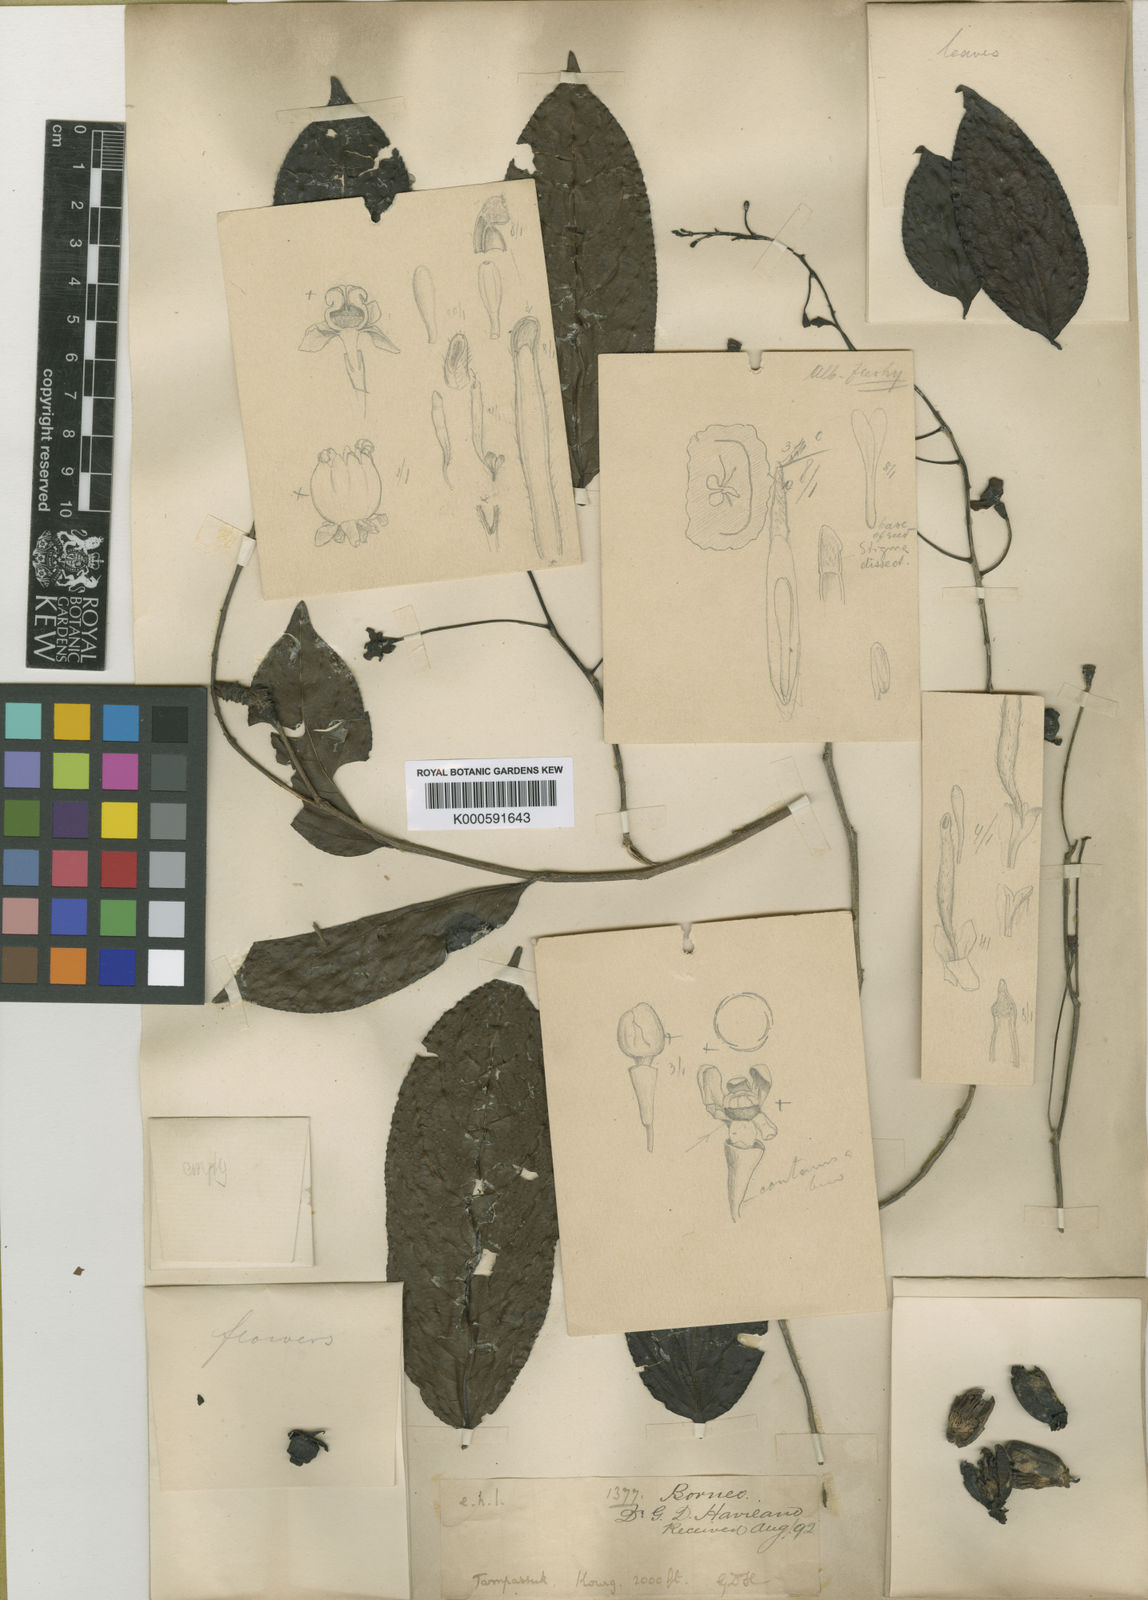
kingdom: Plantae
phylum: Tracheophyta
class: Magnoliopsida
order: Malpighiales
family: Salicaceae
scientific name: Salicaceae
